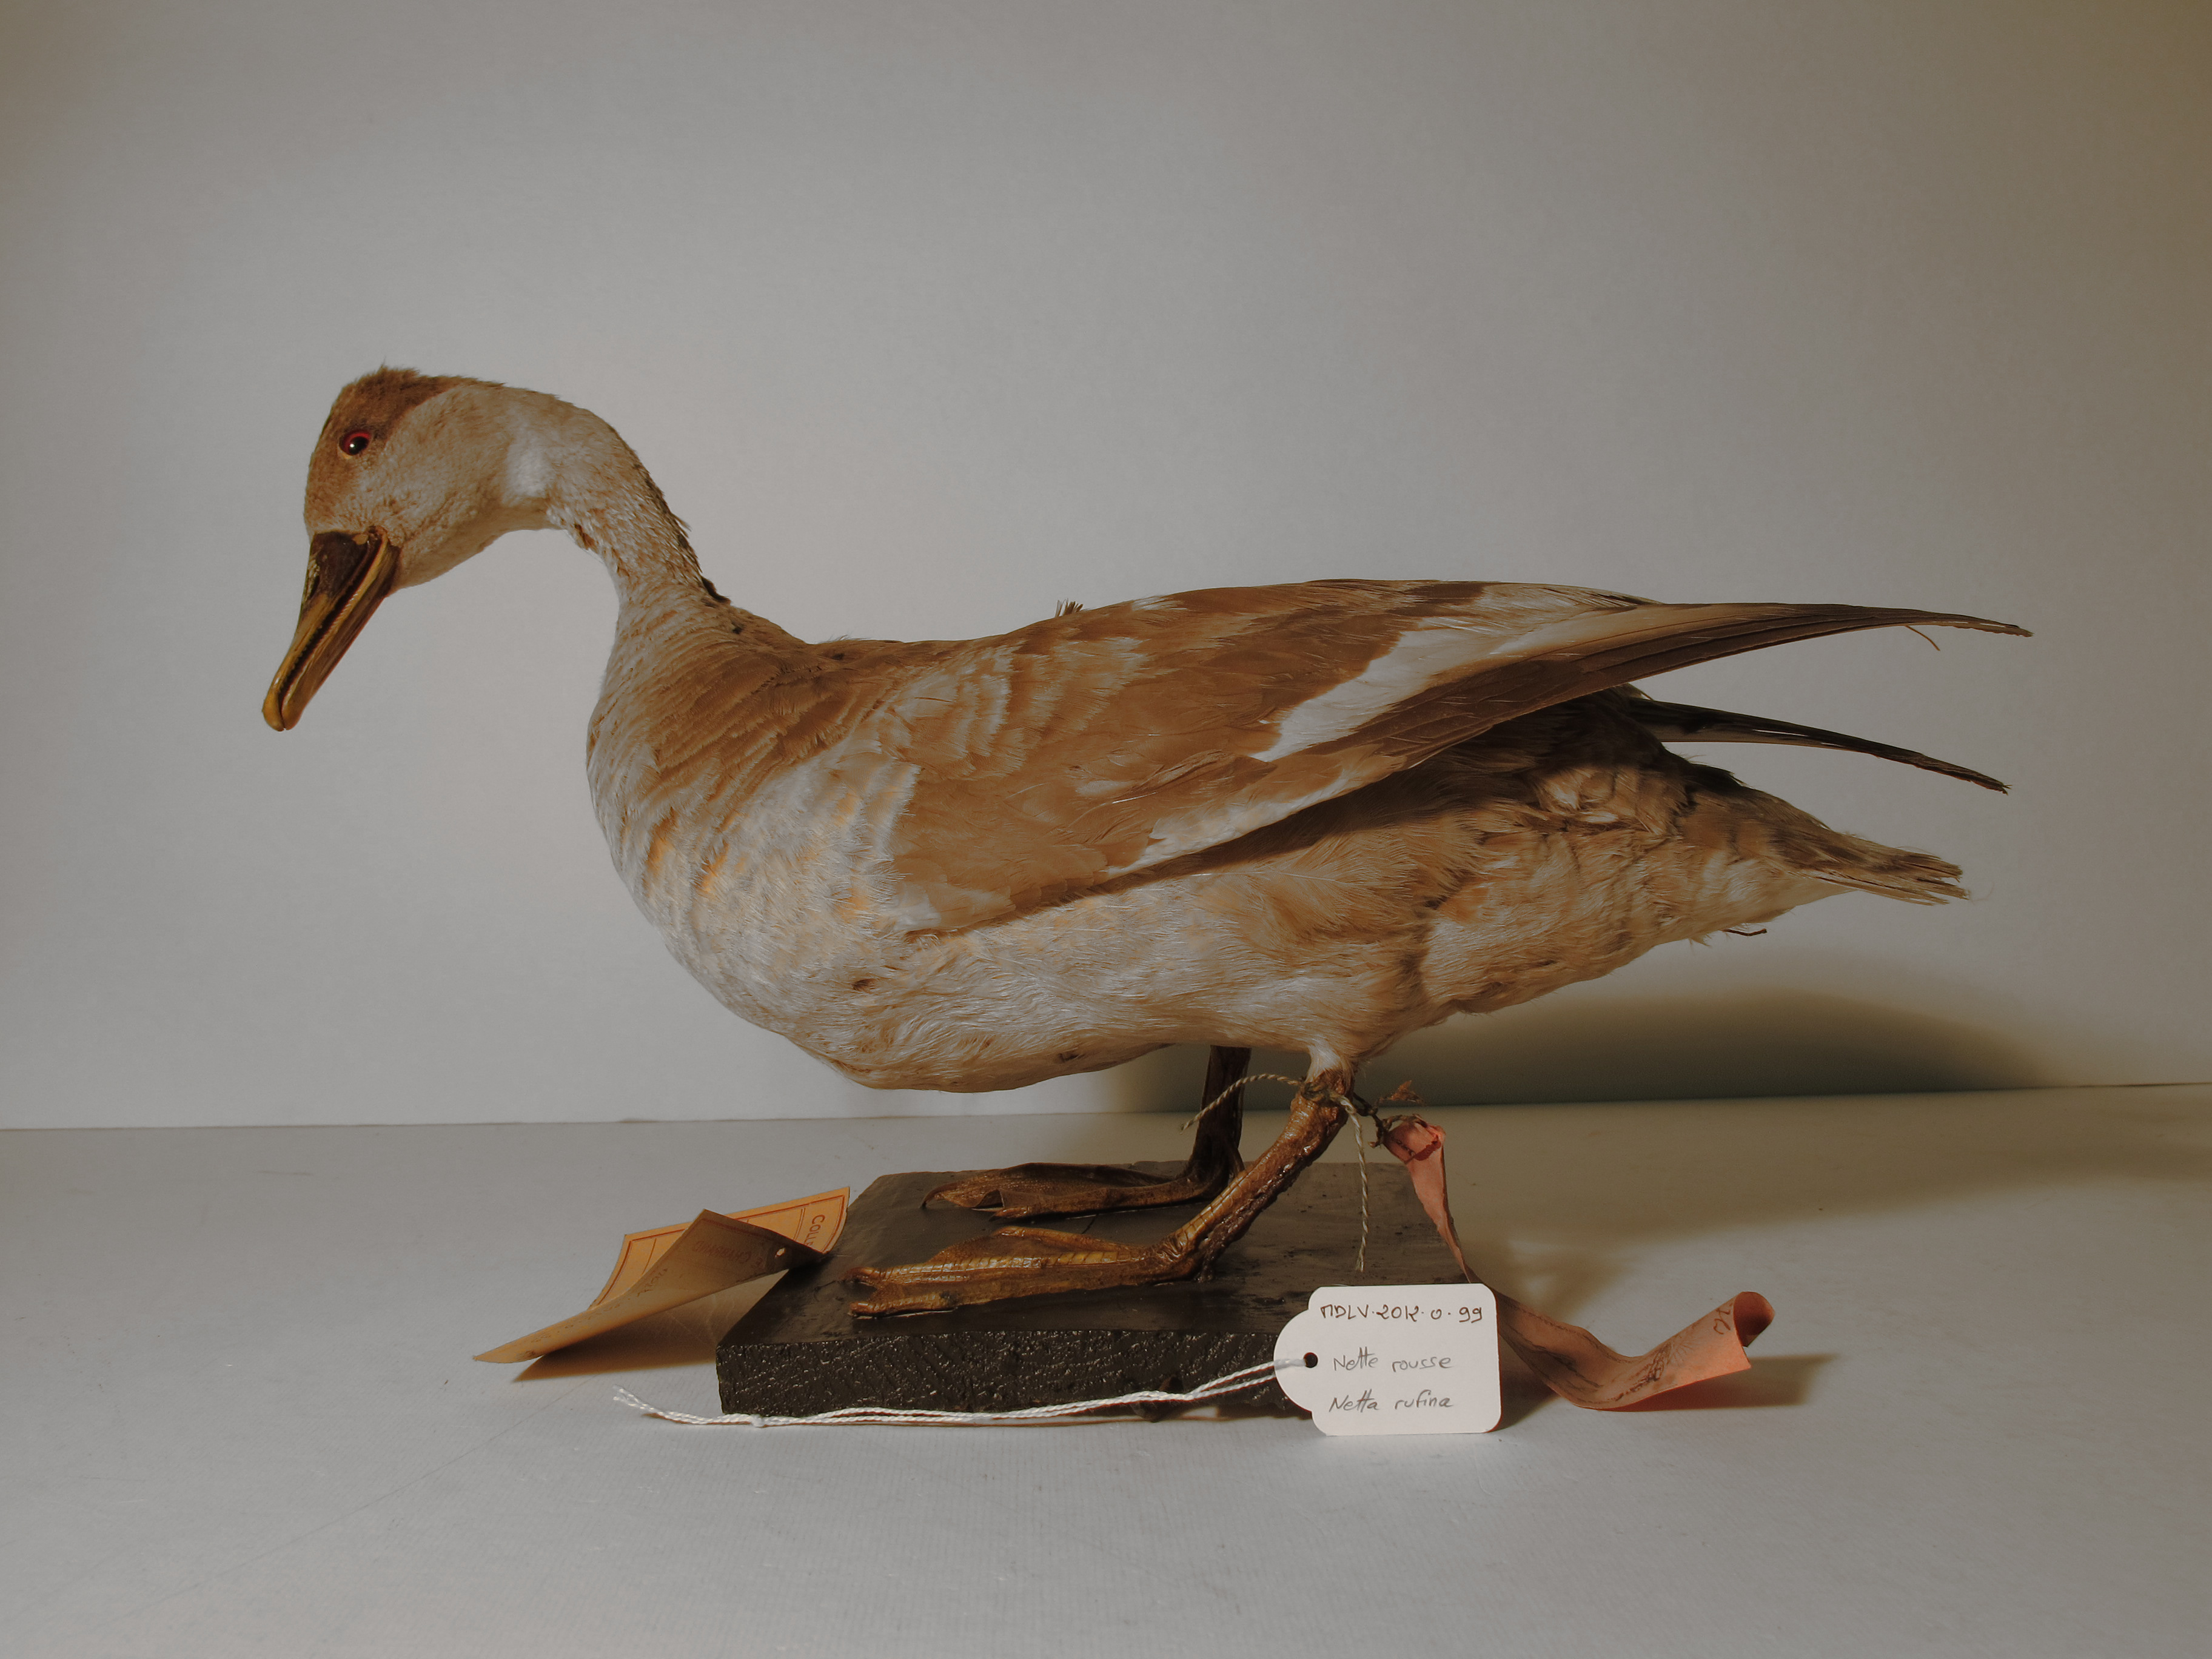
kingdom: Animalia
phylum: Chordata
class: Aves
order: Anseriformes
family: Anatidae
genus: Netta
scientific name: Netta rufina
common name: Red-crested Pochard
